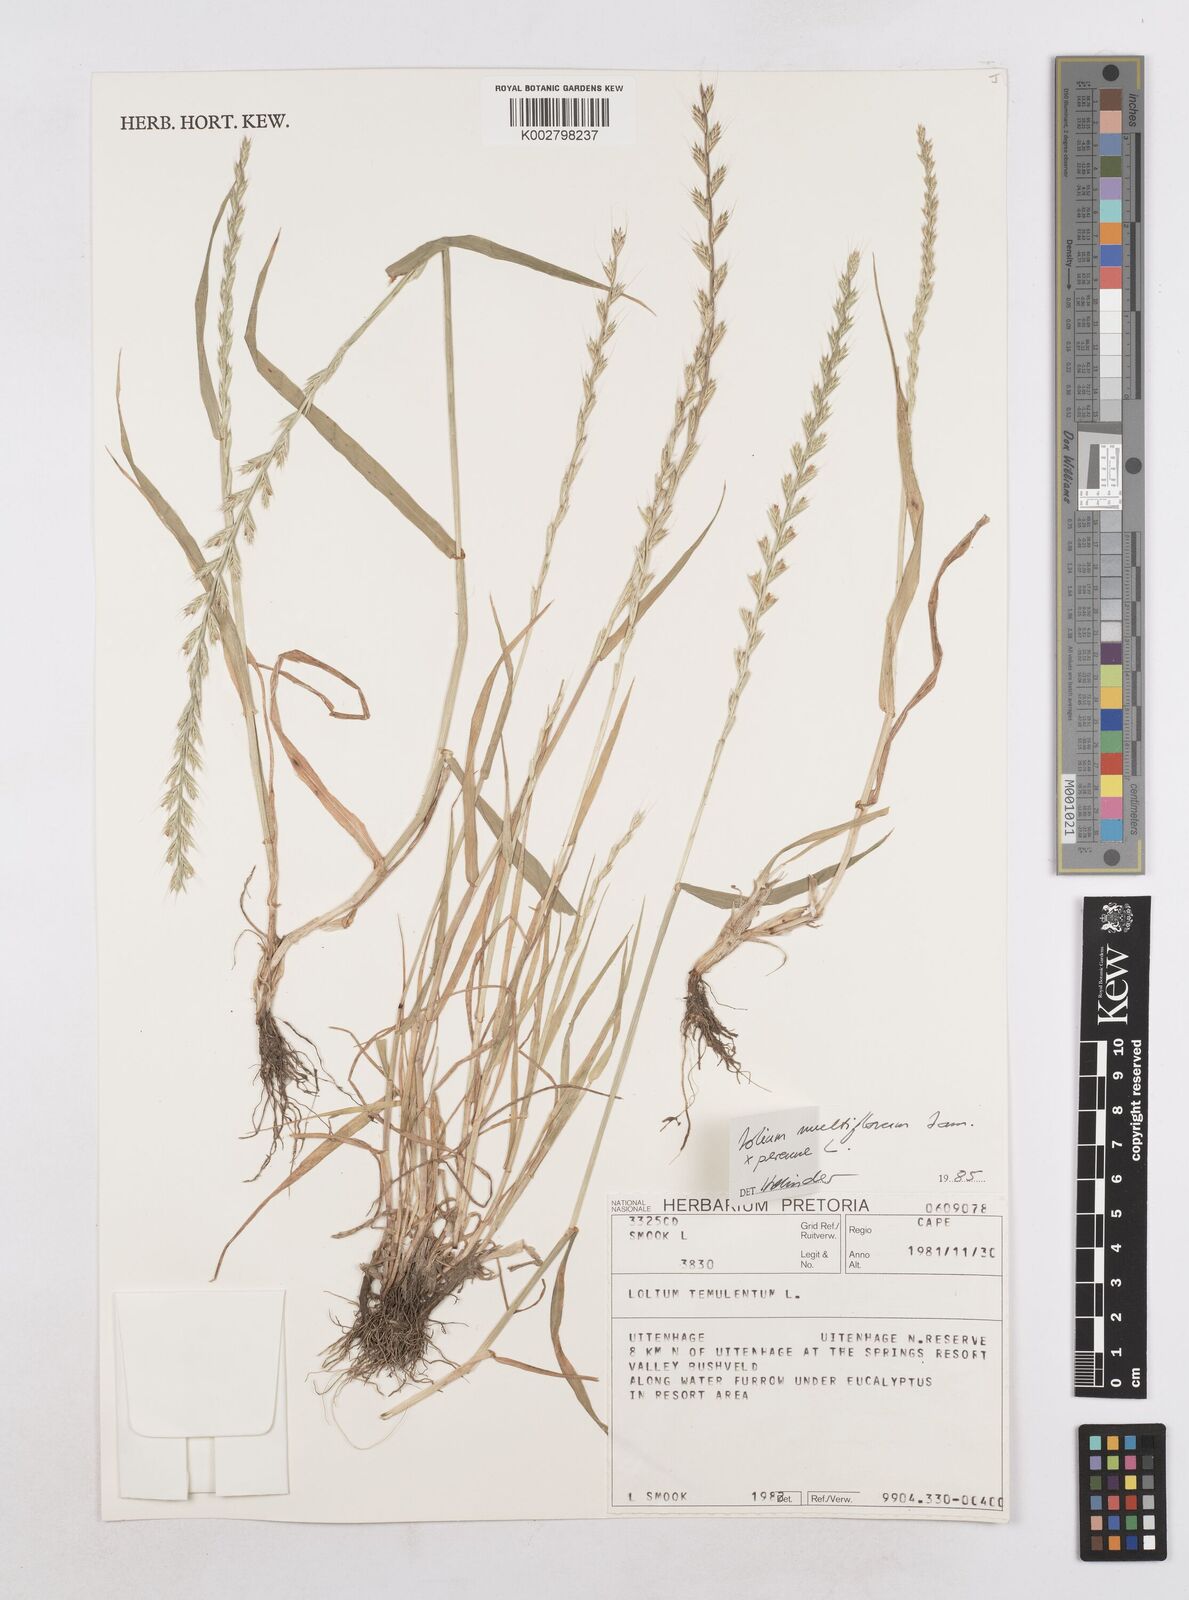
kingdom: Plantae
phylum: Tracheophyta
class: Liliopsida
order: Poales
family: Poaceae
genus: Lolium
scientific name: Lolium temulentum
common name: Darnel
